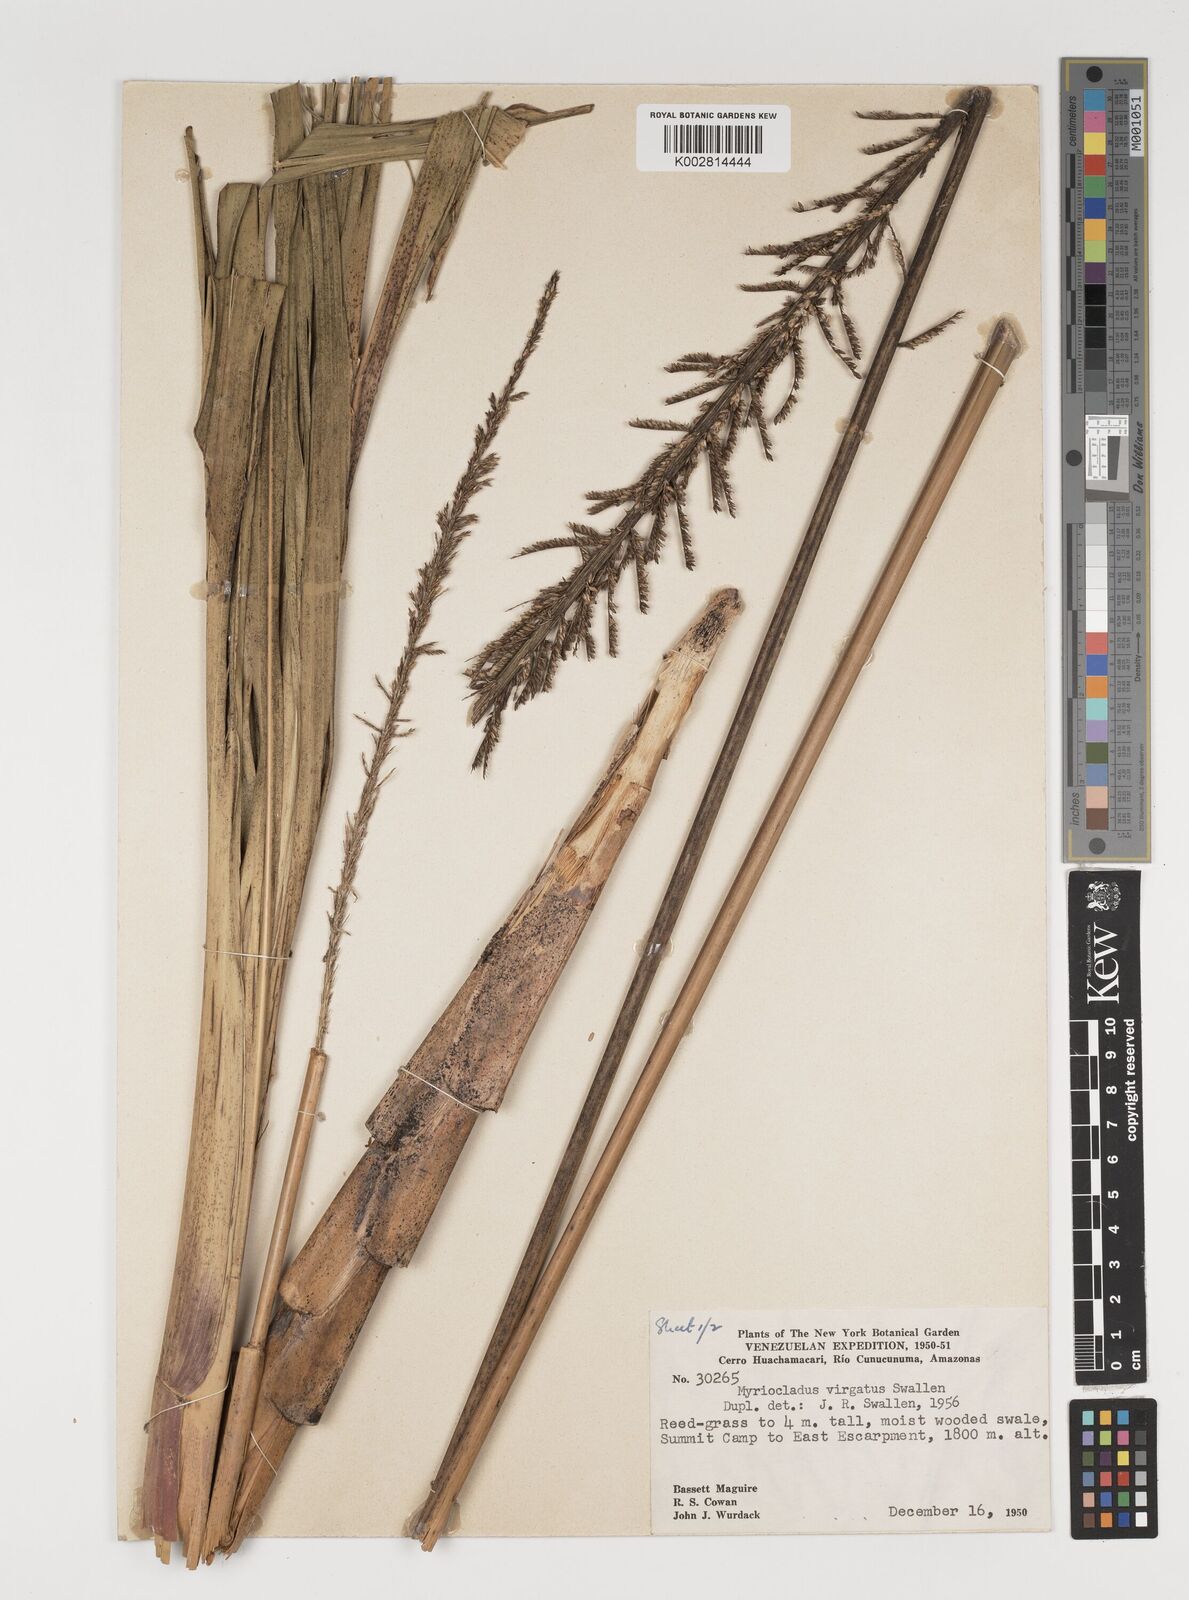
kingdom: Plantae
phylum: Tracheophyta
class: Liliopsida
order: Poales
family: Poaceae
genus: Myriocladus
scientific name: Myriocladus virgatus
